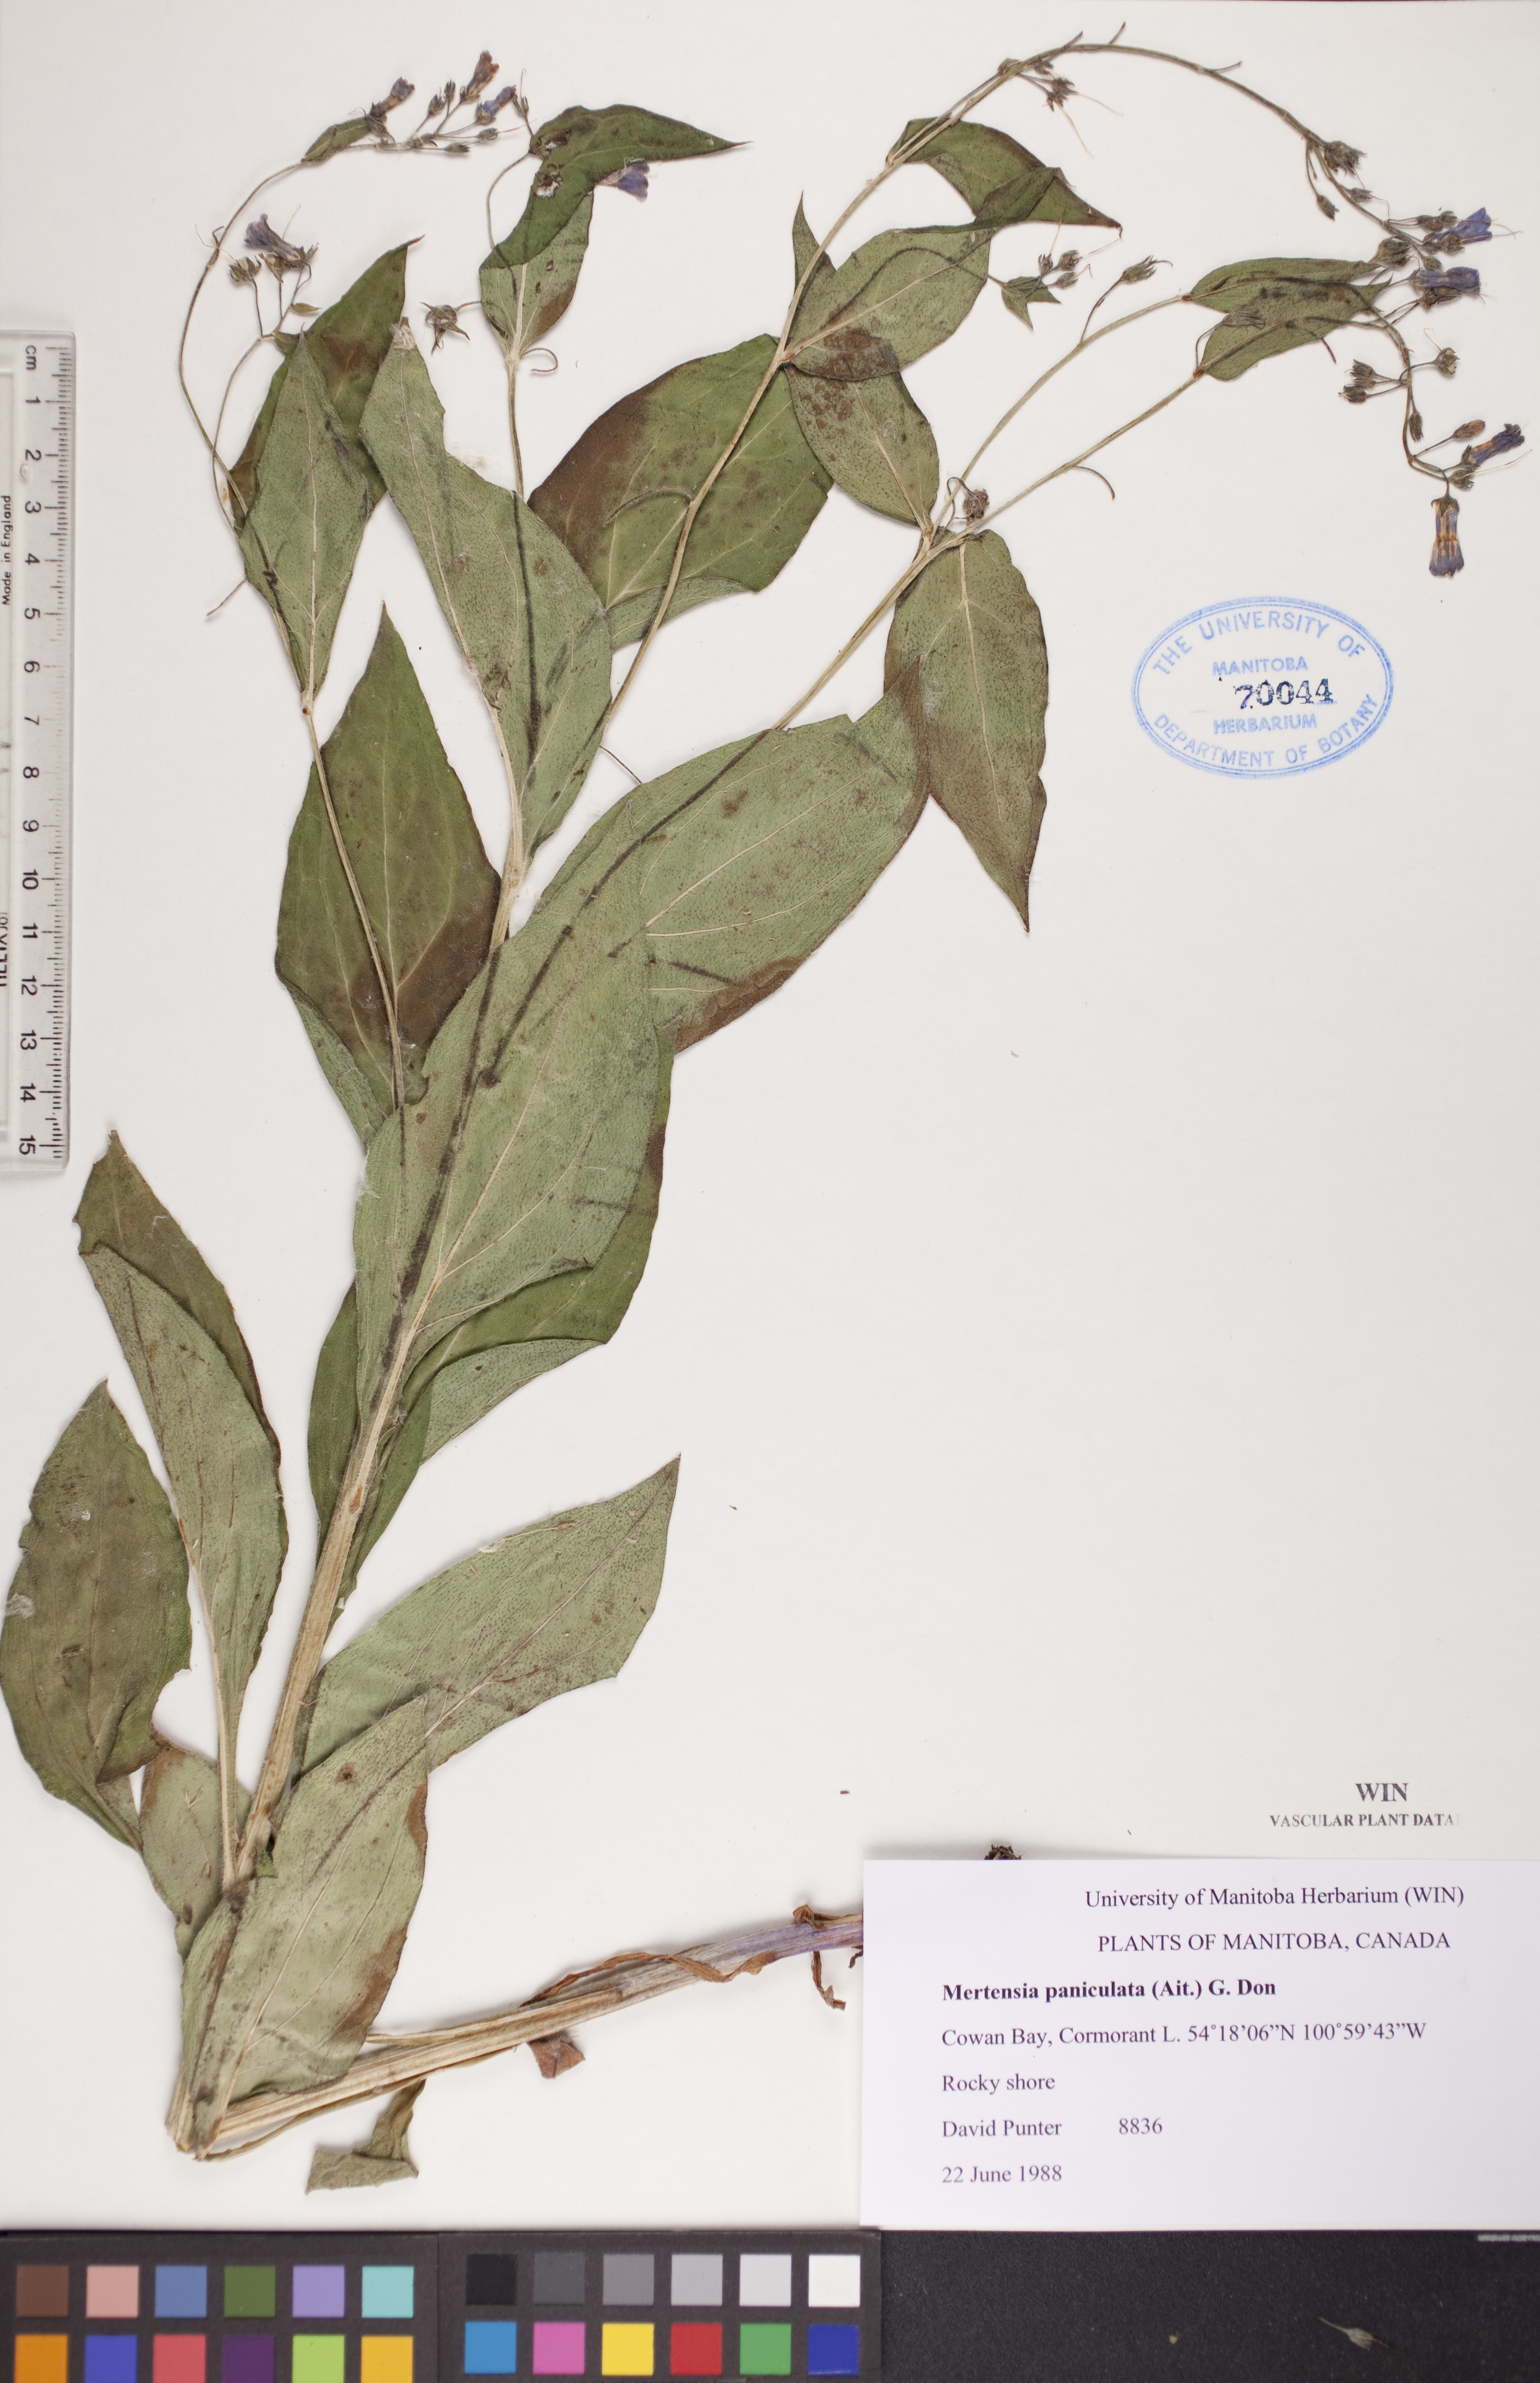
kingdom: Plantae
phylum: Tracheophyta
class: Magnoliopsida
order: Boraginales
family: Boraginaceae
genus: Mertensia
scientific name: Mertensia paniculata
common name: Panicled bluebells
